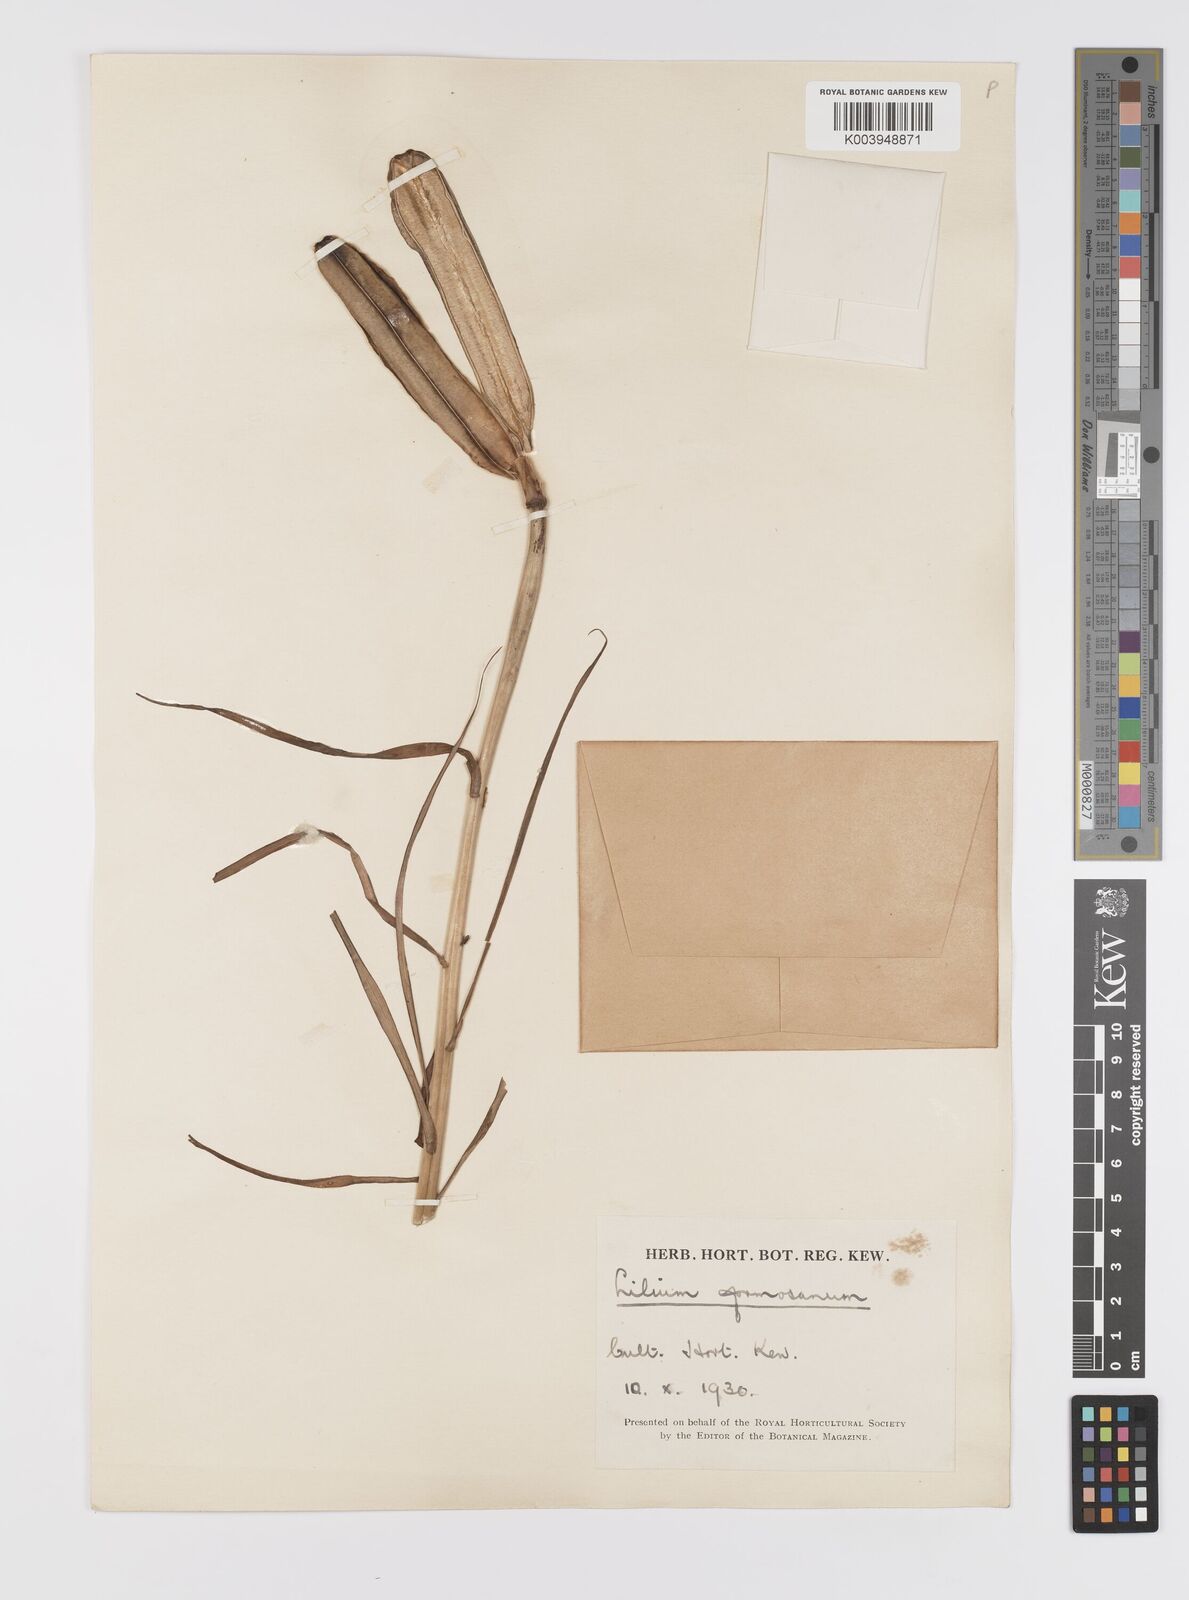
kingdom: Plantae
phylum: Tracheophyta
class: Liliopsida
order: Liliales
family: Liliaceae
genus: Lilium
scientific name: Lilium formosanum
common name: Formosa lily
